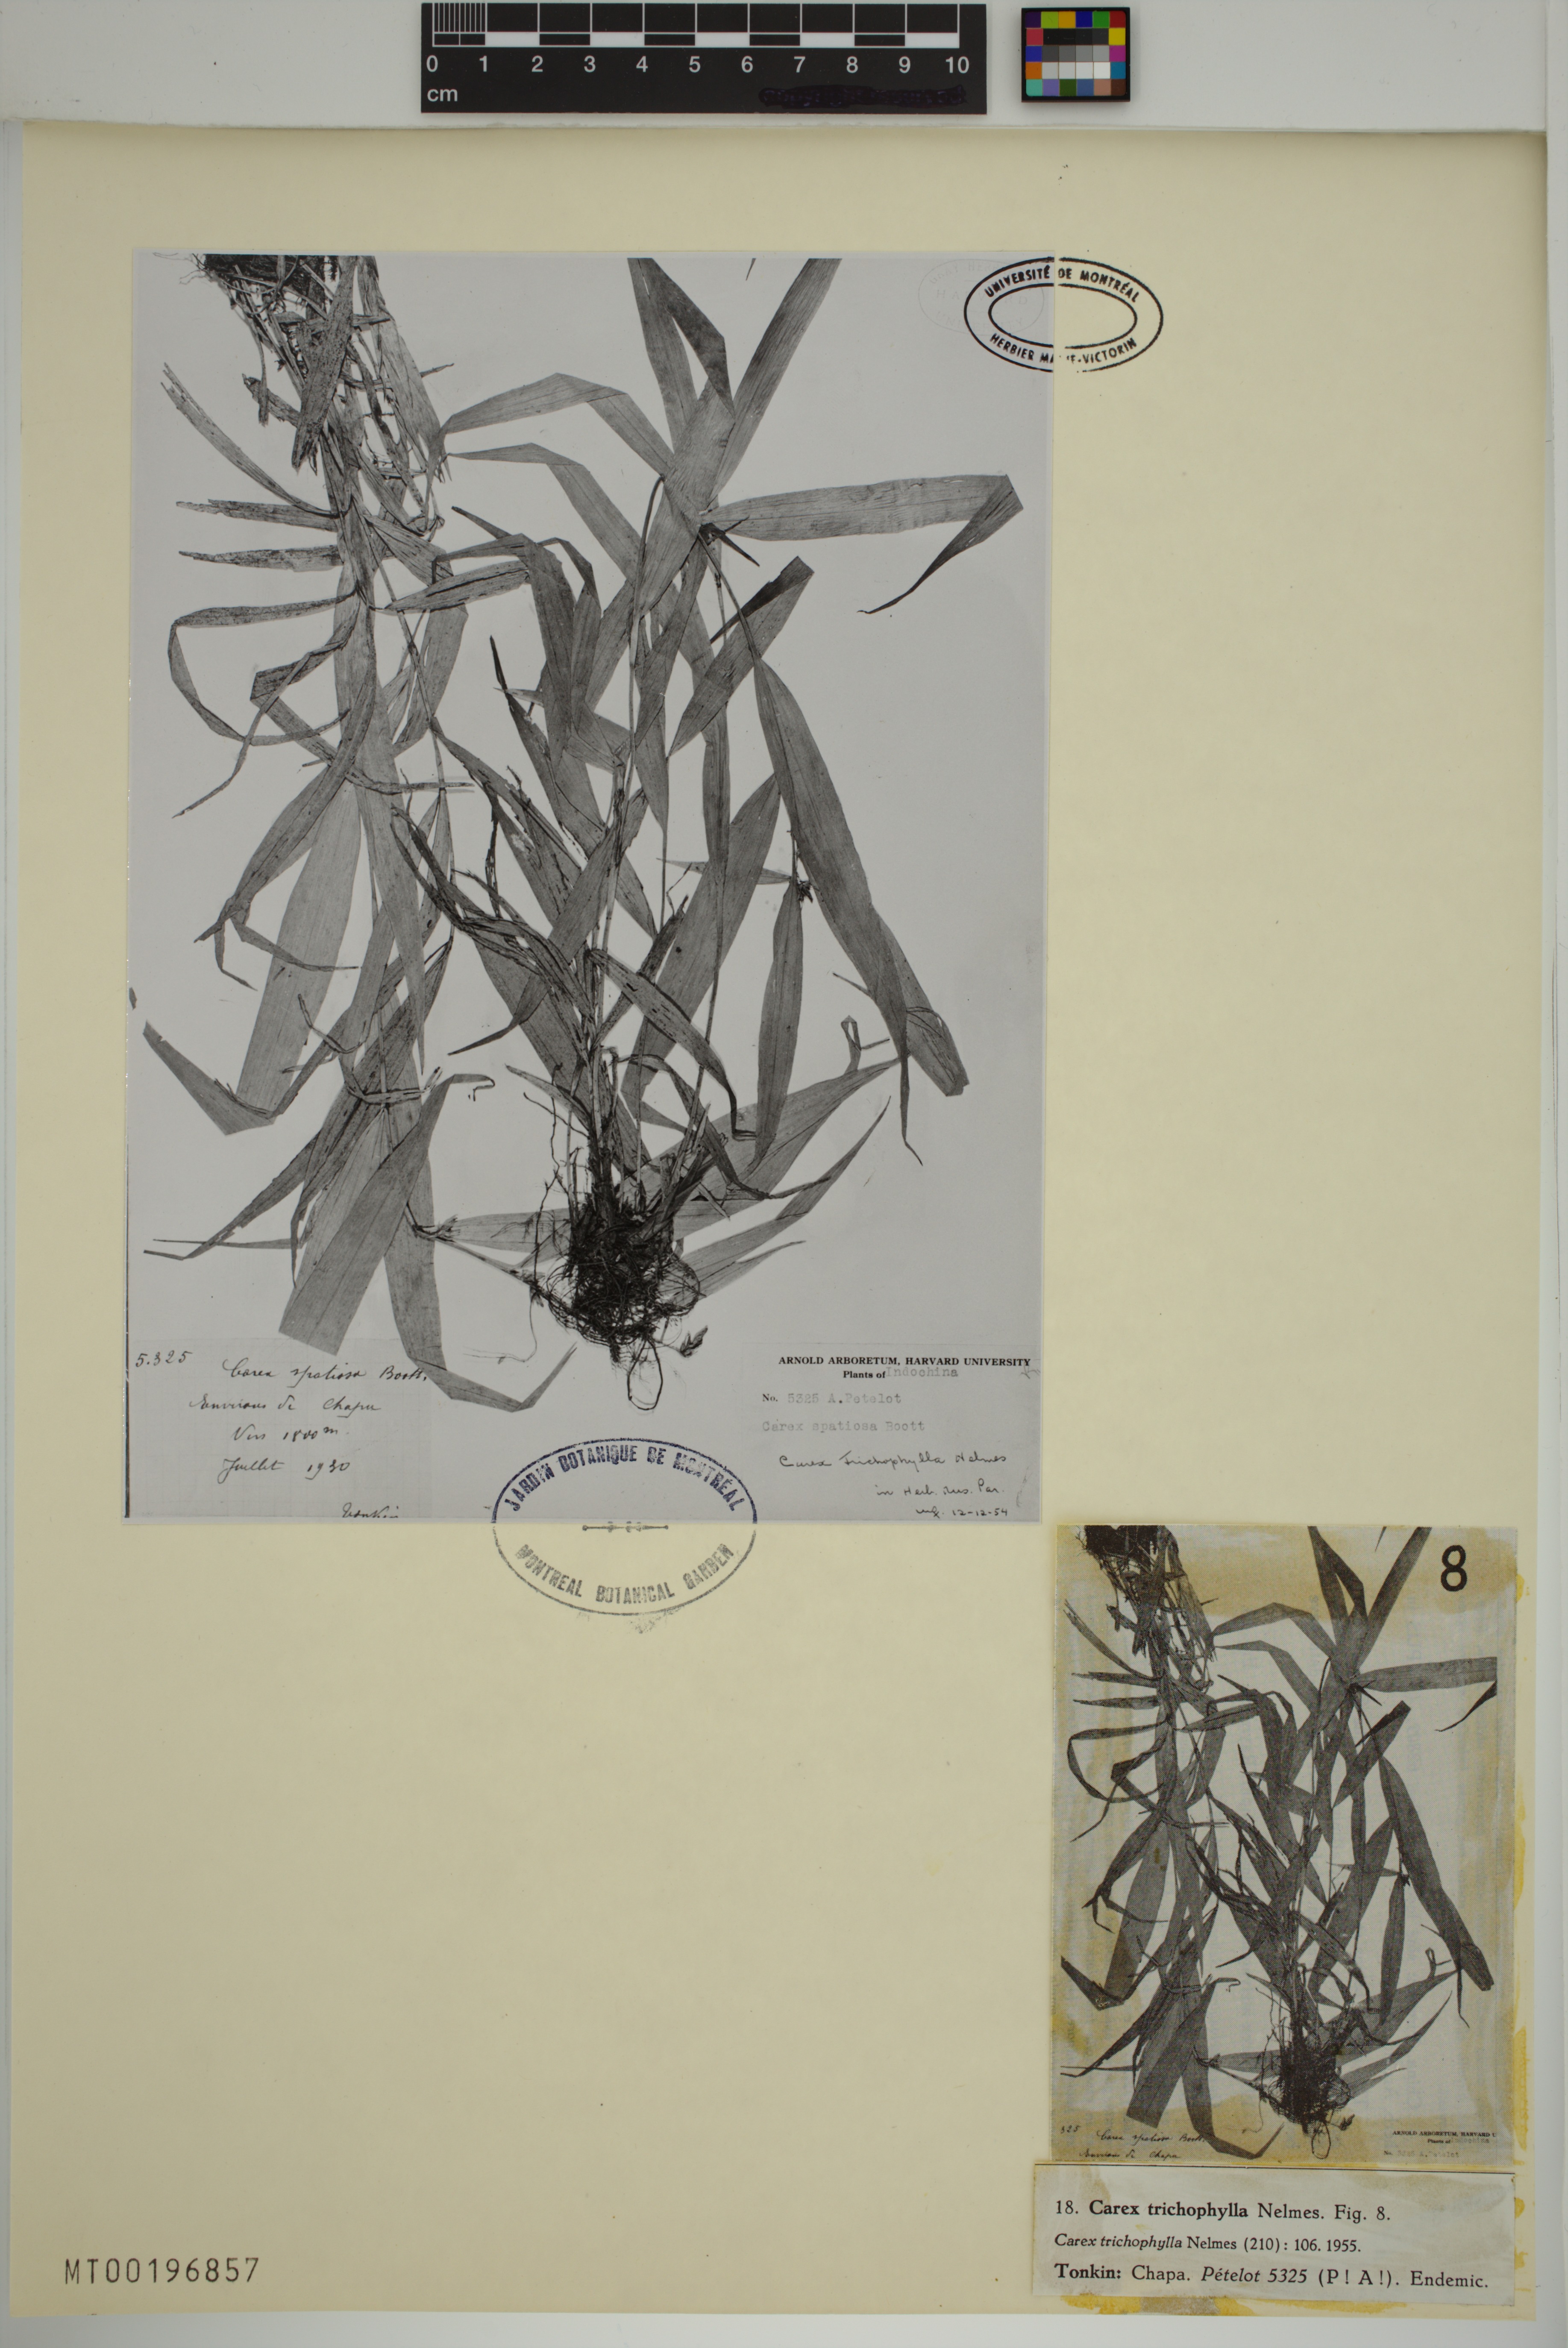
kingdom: Plantae
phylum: Tracheophyta
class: Liliopsida
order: Poales
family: Cyperaceae
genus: Carex
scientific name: Carex trichophylla
